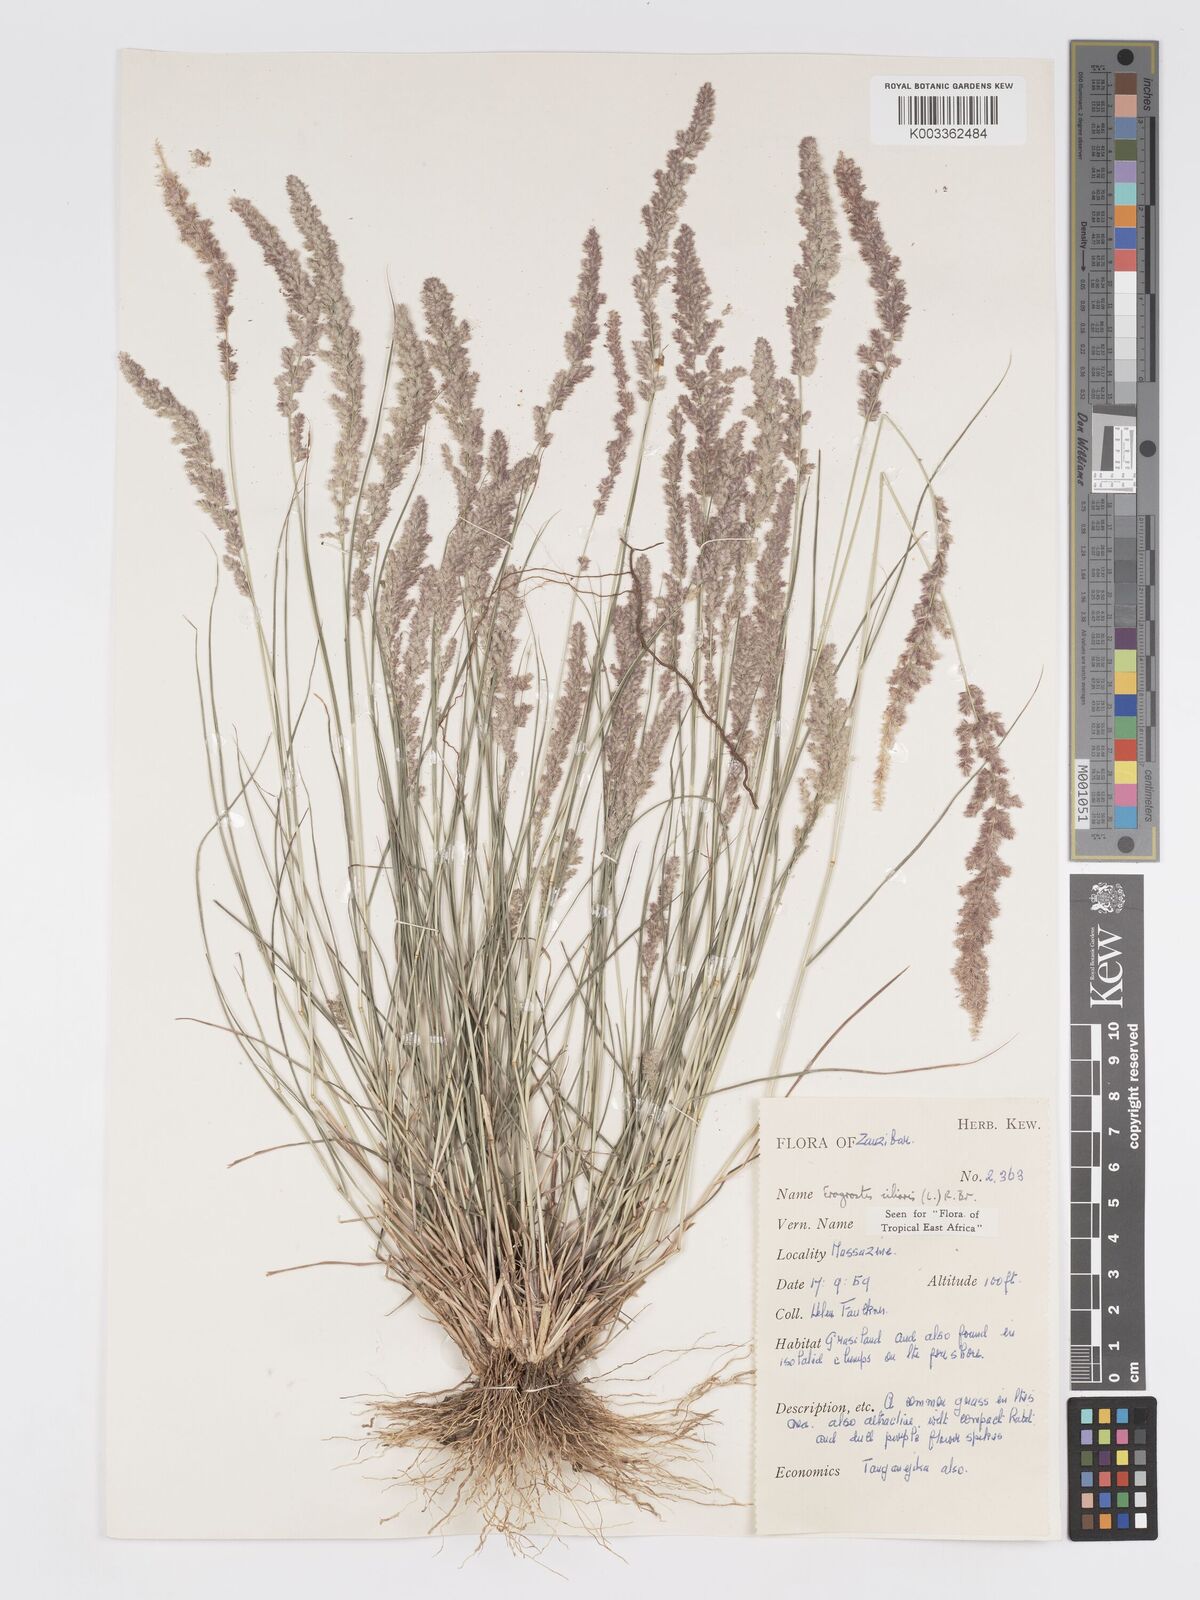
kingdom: Plantae
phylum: Tracheophyta
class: Liliopsida
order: Poales
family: Poaceae
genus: Eragrostis
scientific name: Eragrostis ciliaris
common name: Gophertail lovegrass
